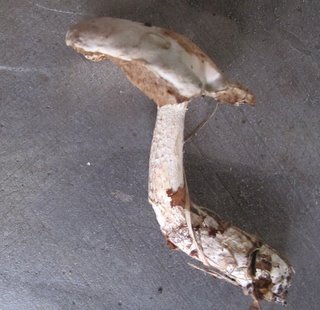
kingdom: Fungi
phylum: Basidiomycota
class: Agaricomycetes
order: Boletales
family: Boletaceae
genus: Leccinum
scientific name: Leccinum scabrum
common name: hvid skælrørhat
